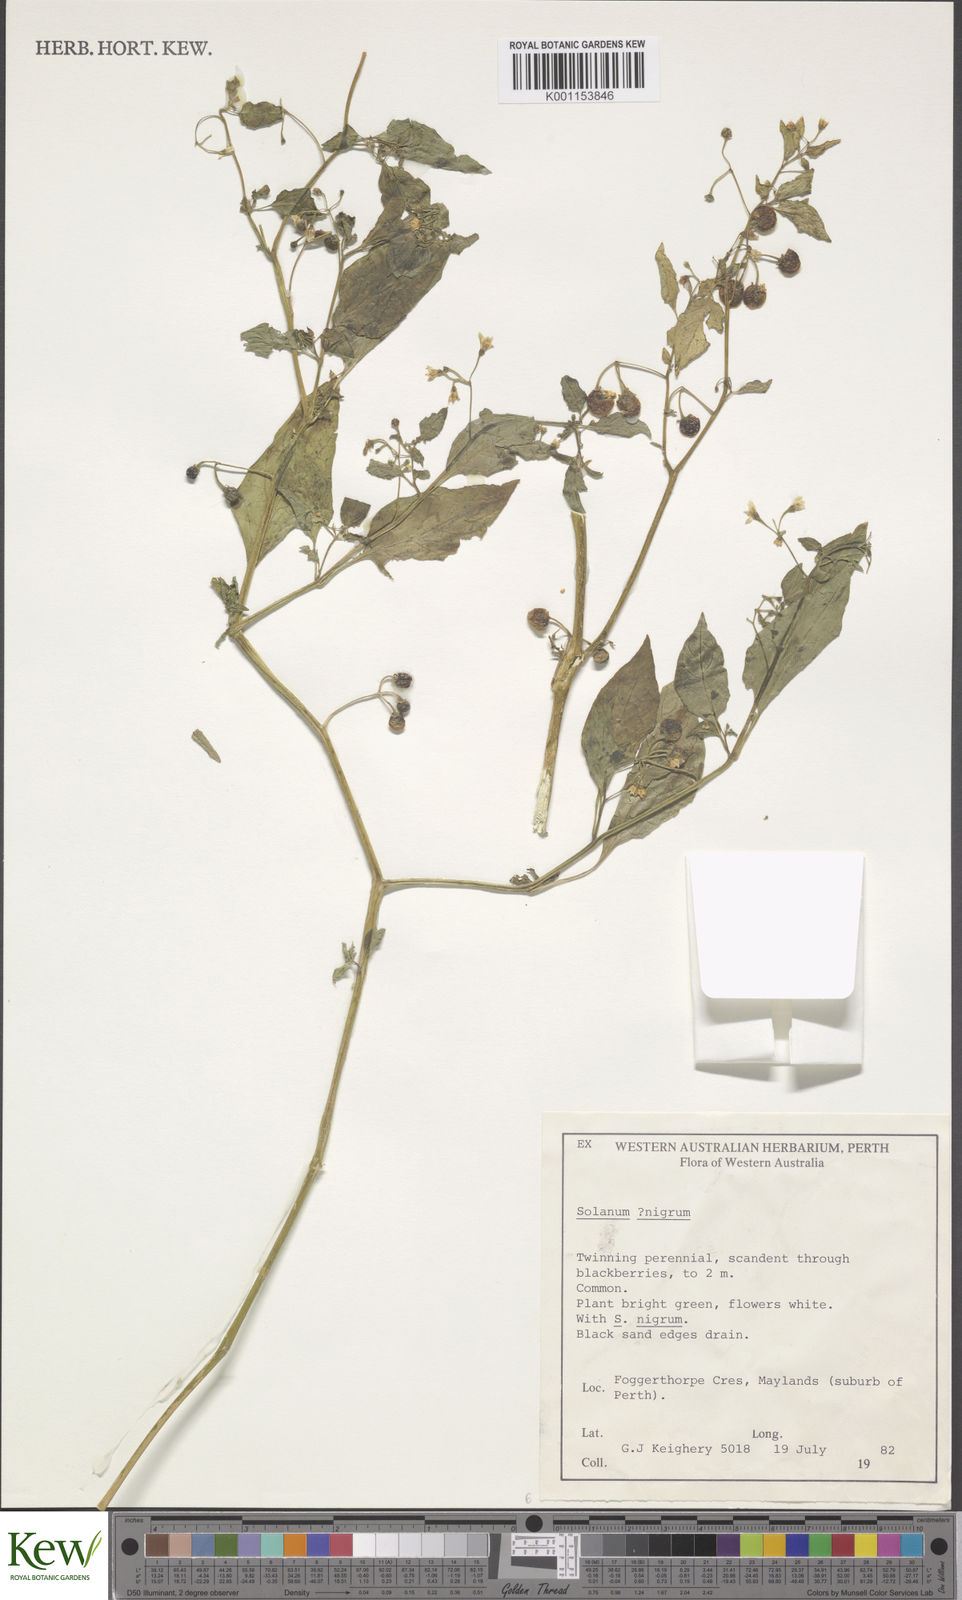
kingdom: Plantae
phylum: Tracheophyta
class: Magnoliopsida
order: Solanales
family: Solanaceae
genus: Solanum
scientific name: Solanum americanum
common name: American black nightshade
